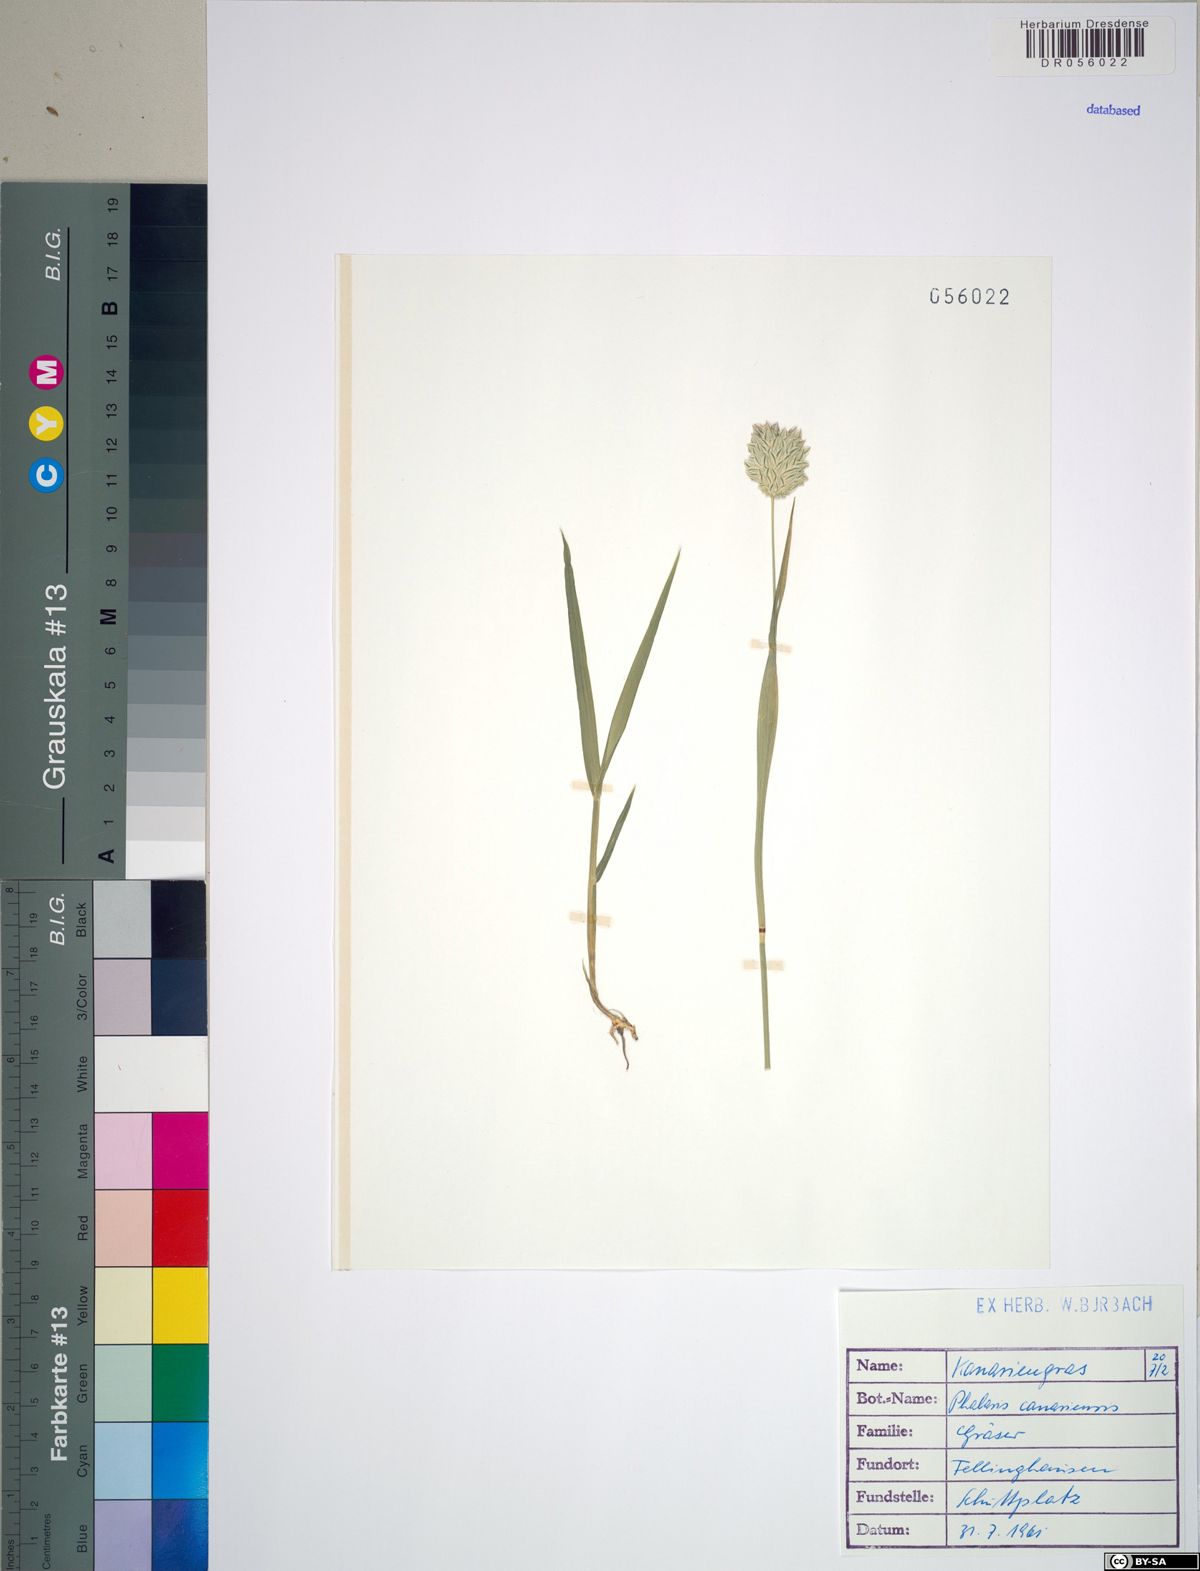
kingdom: Plantae
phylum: Tracheophyta
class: Liliopsida
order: Poales
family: Poaceae
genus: Phalaris
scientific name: Phalaris canariensis
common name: Annual canarygrass
